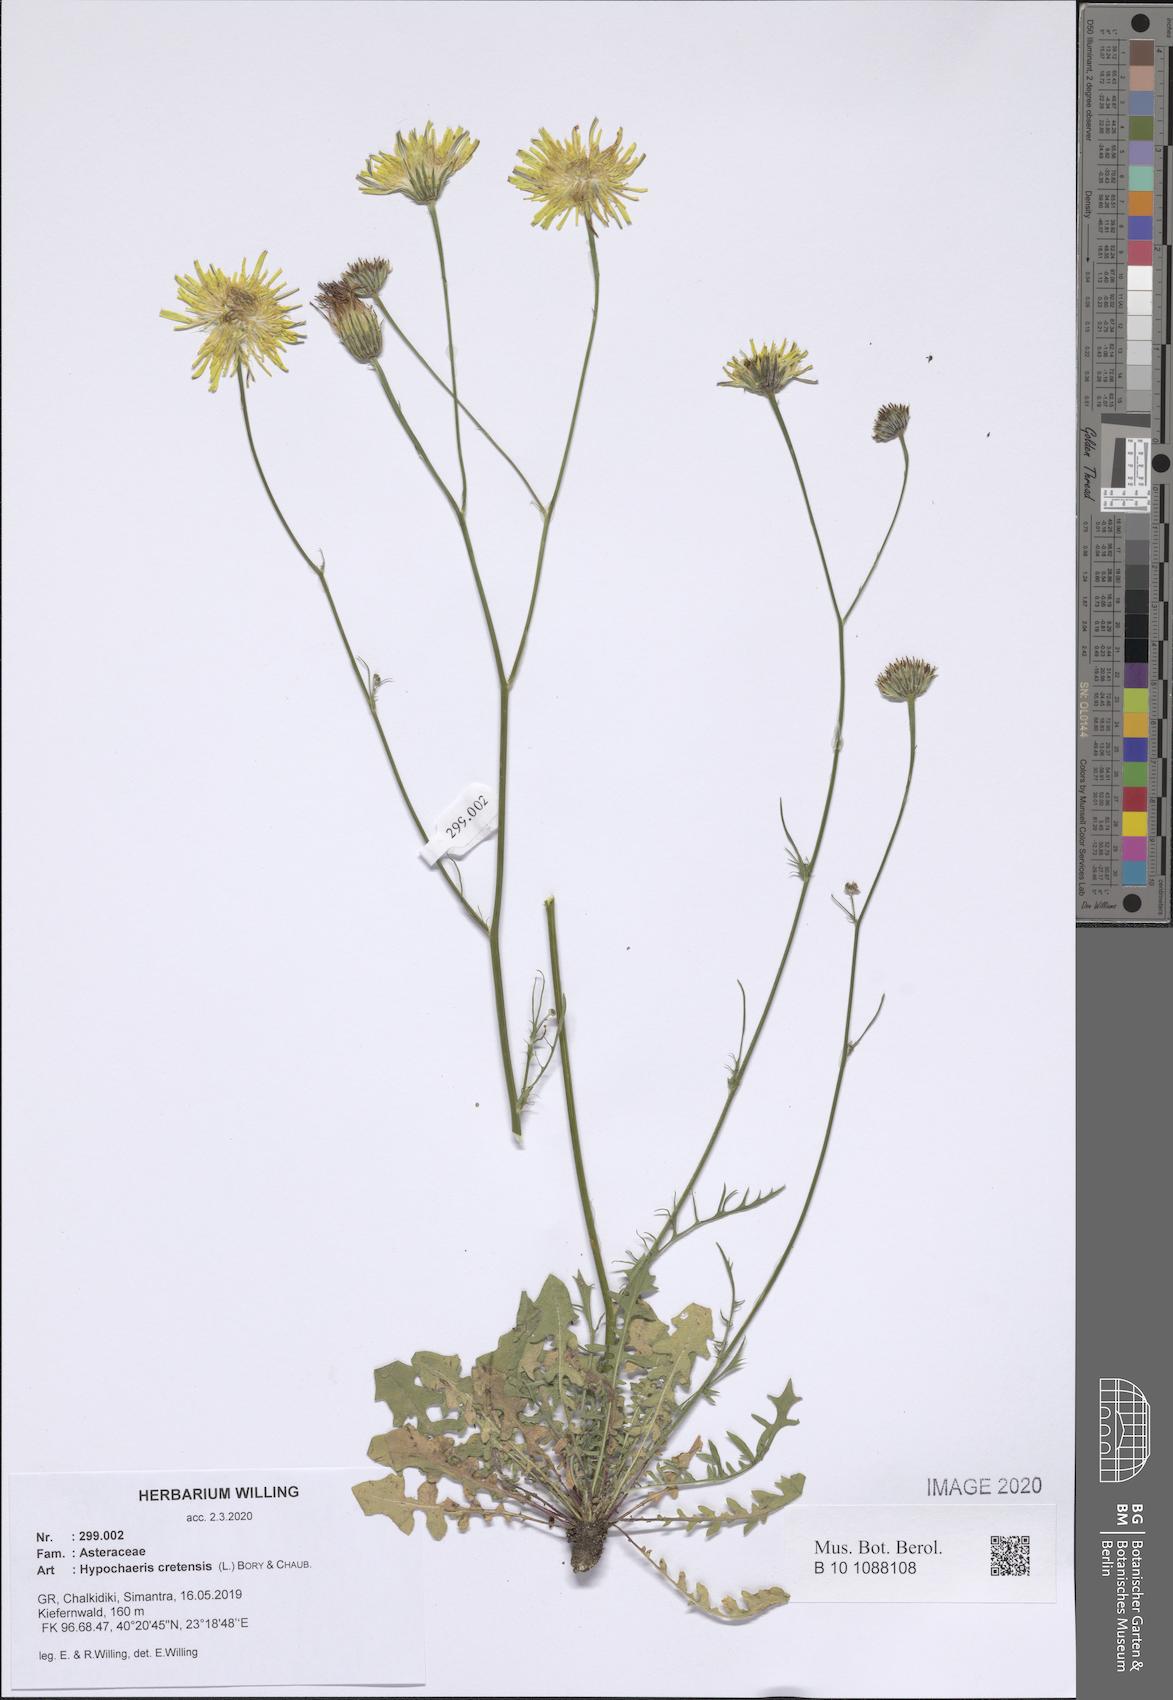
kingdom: Plantae
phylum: Tracheophyta
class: Magnoliopsida
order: Asterales
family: Asteraceae
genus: Hypochaeris
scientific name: Hypochaeris cretensis
